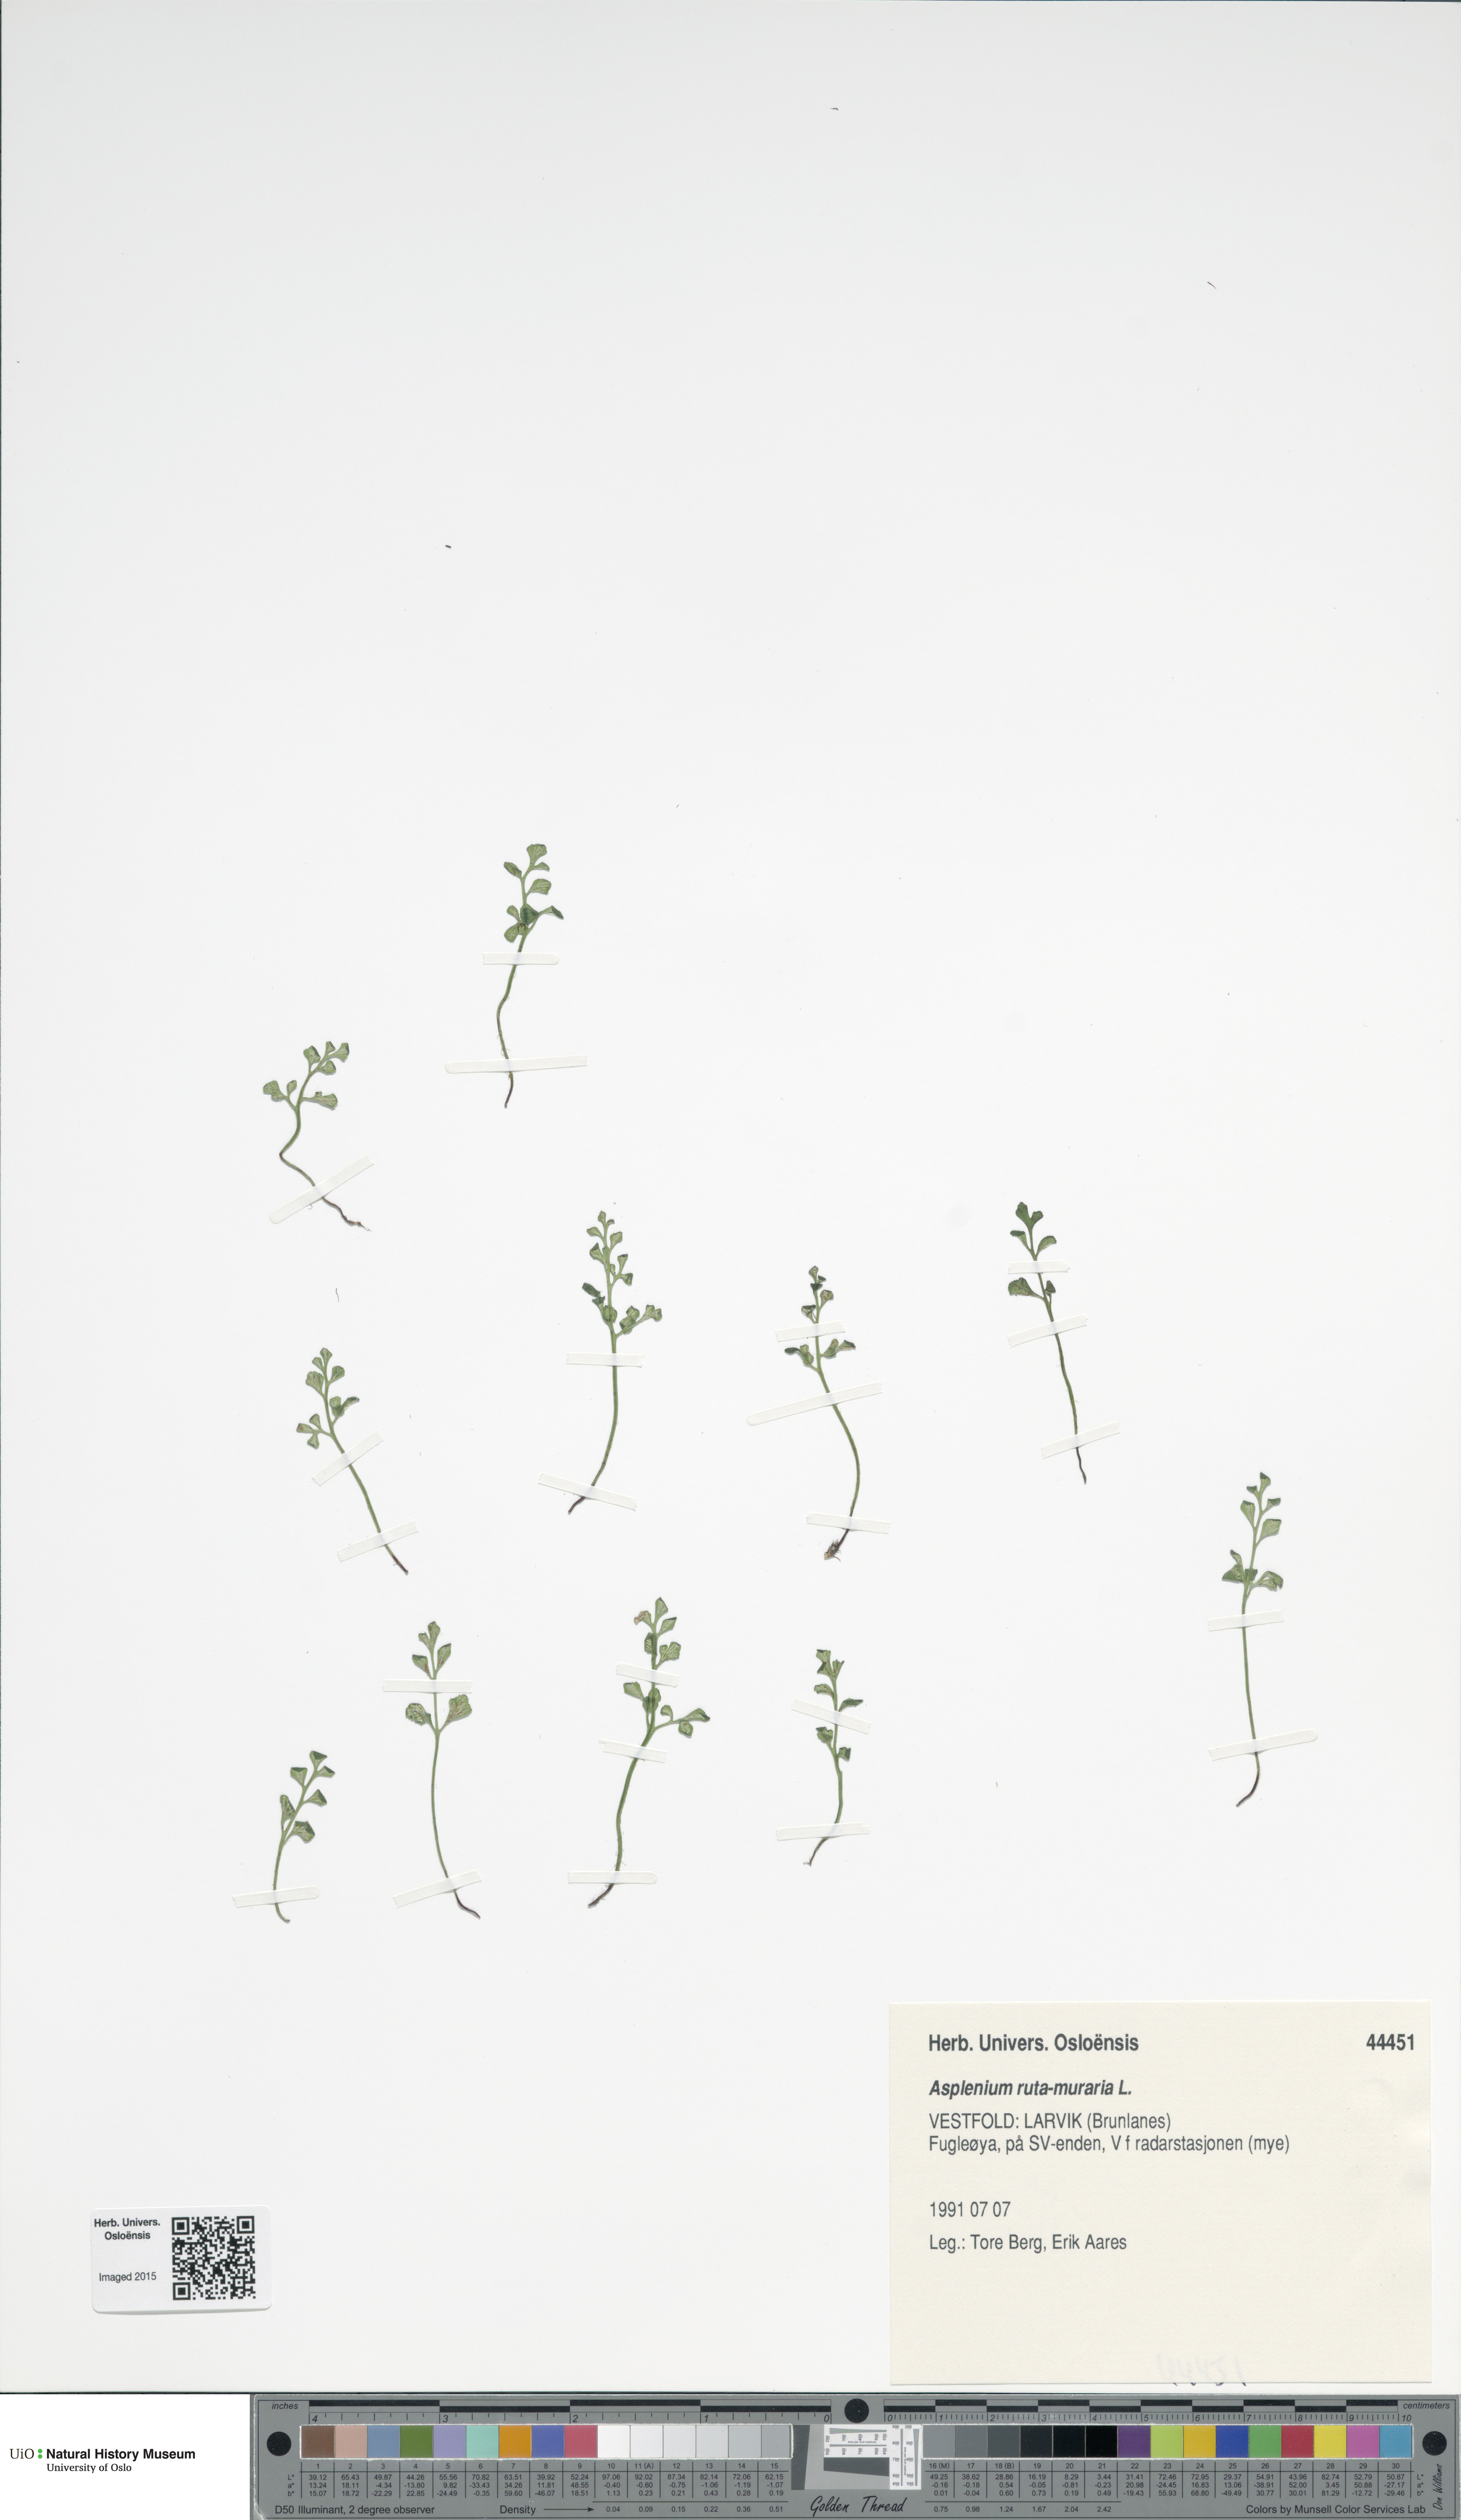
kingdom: Plantae
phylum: Tracheophyta
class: Polypodiopsida
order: Polypodiales
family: Aspleniaceae
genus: Asplenium
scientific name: Asplenium ruta-muraria
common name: Wall-rue
